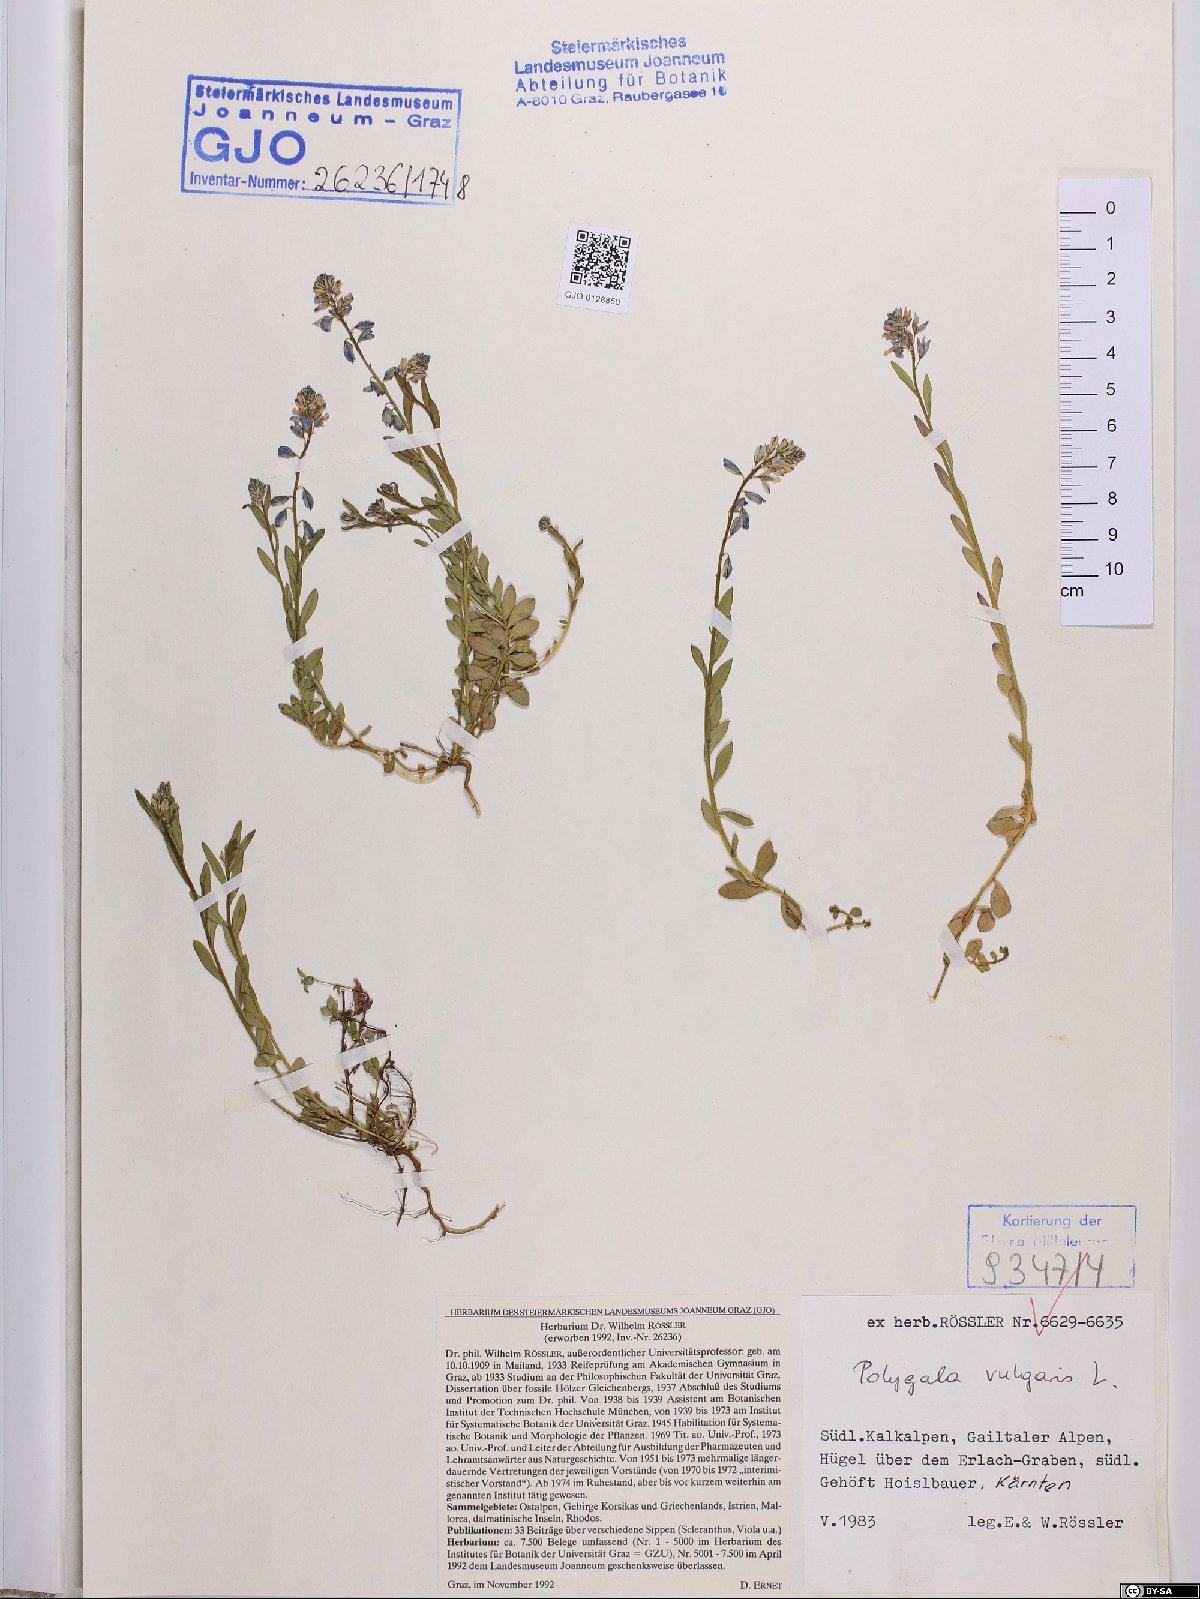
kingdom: Plantae
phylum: Tracheophyta
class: Magnoliopsida
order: Fabales
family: Polygalaceae
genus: Polygala
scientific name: Polygala vulgaris
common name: Common milkwort
